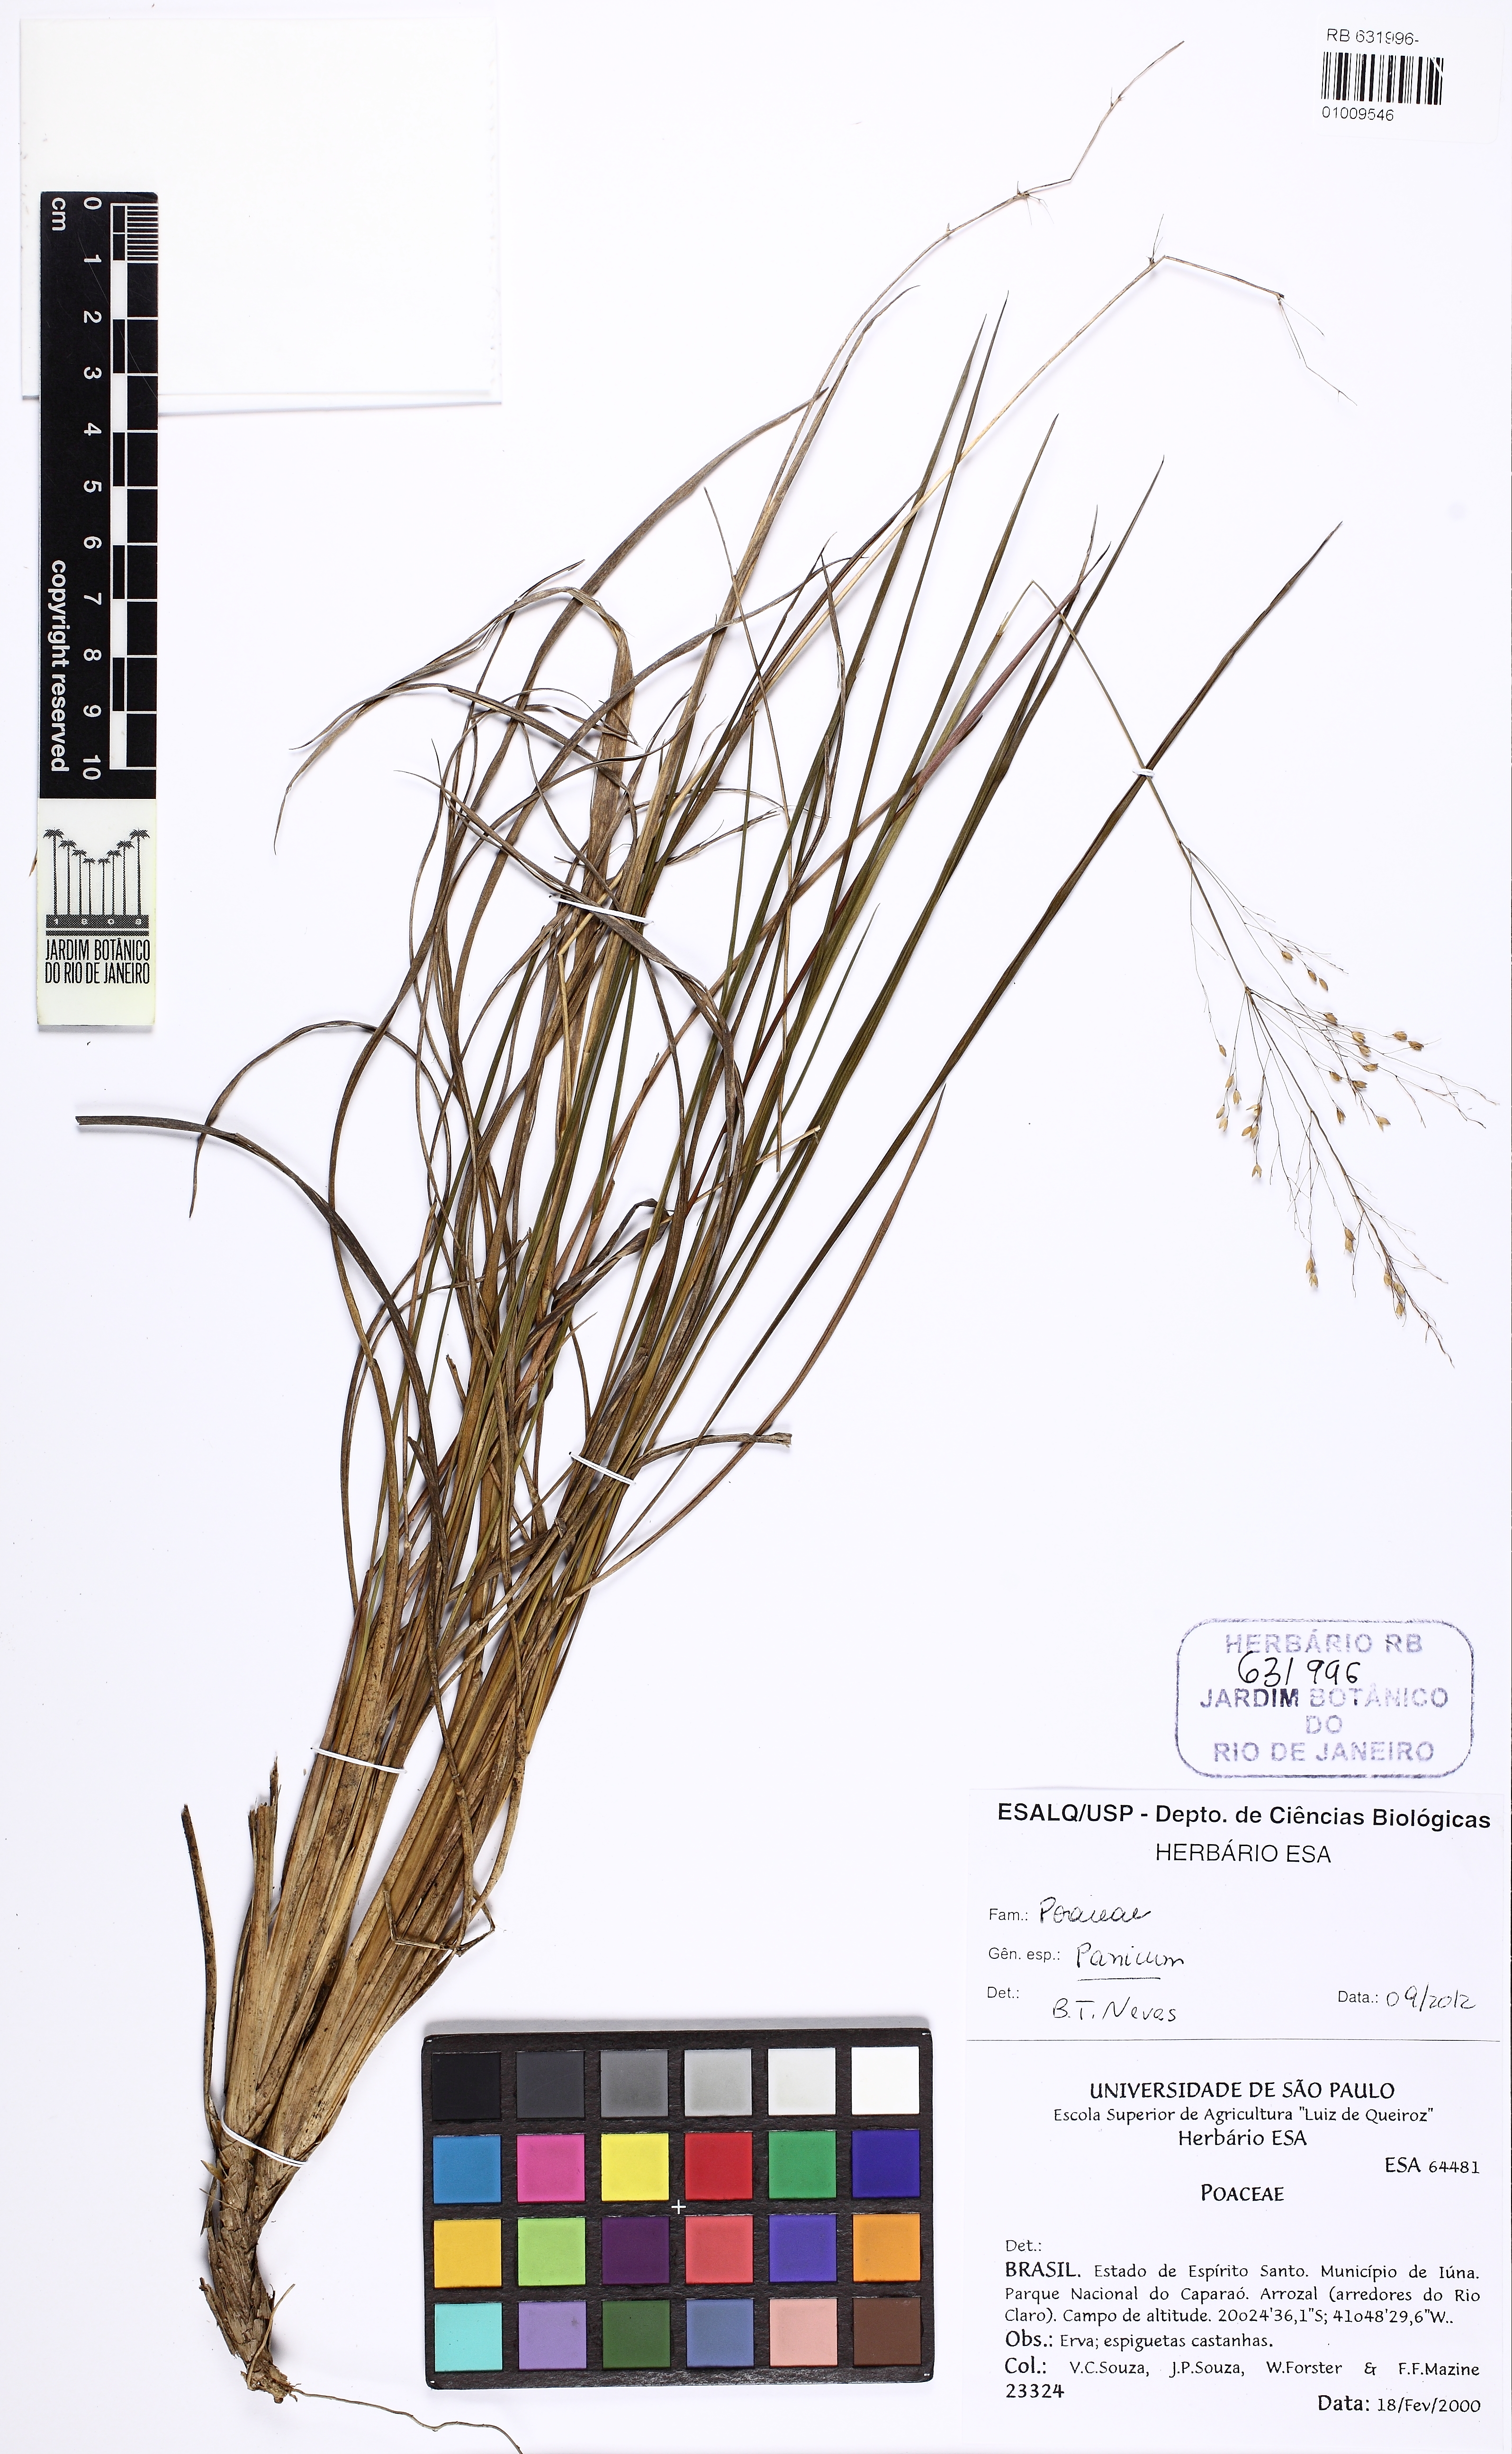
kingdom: Plantae
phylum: Tracheophyta
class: Liliopsida
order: Poales
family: Poaceae
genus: Panicum
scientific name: Panicum
